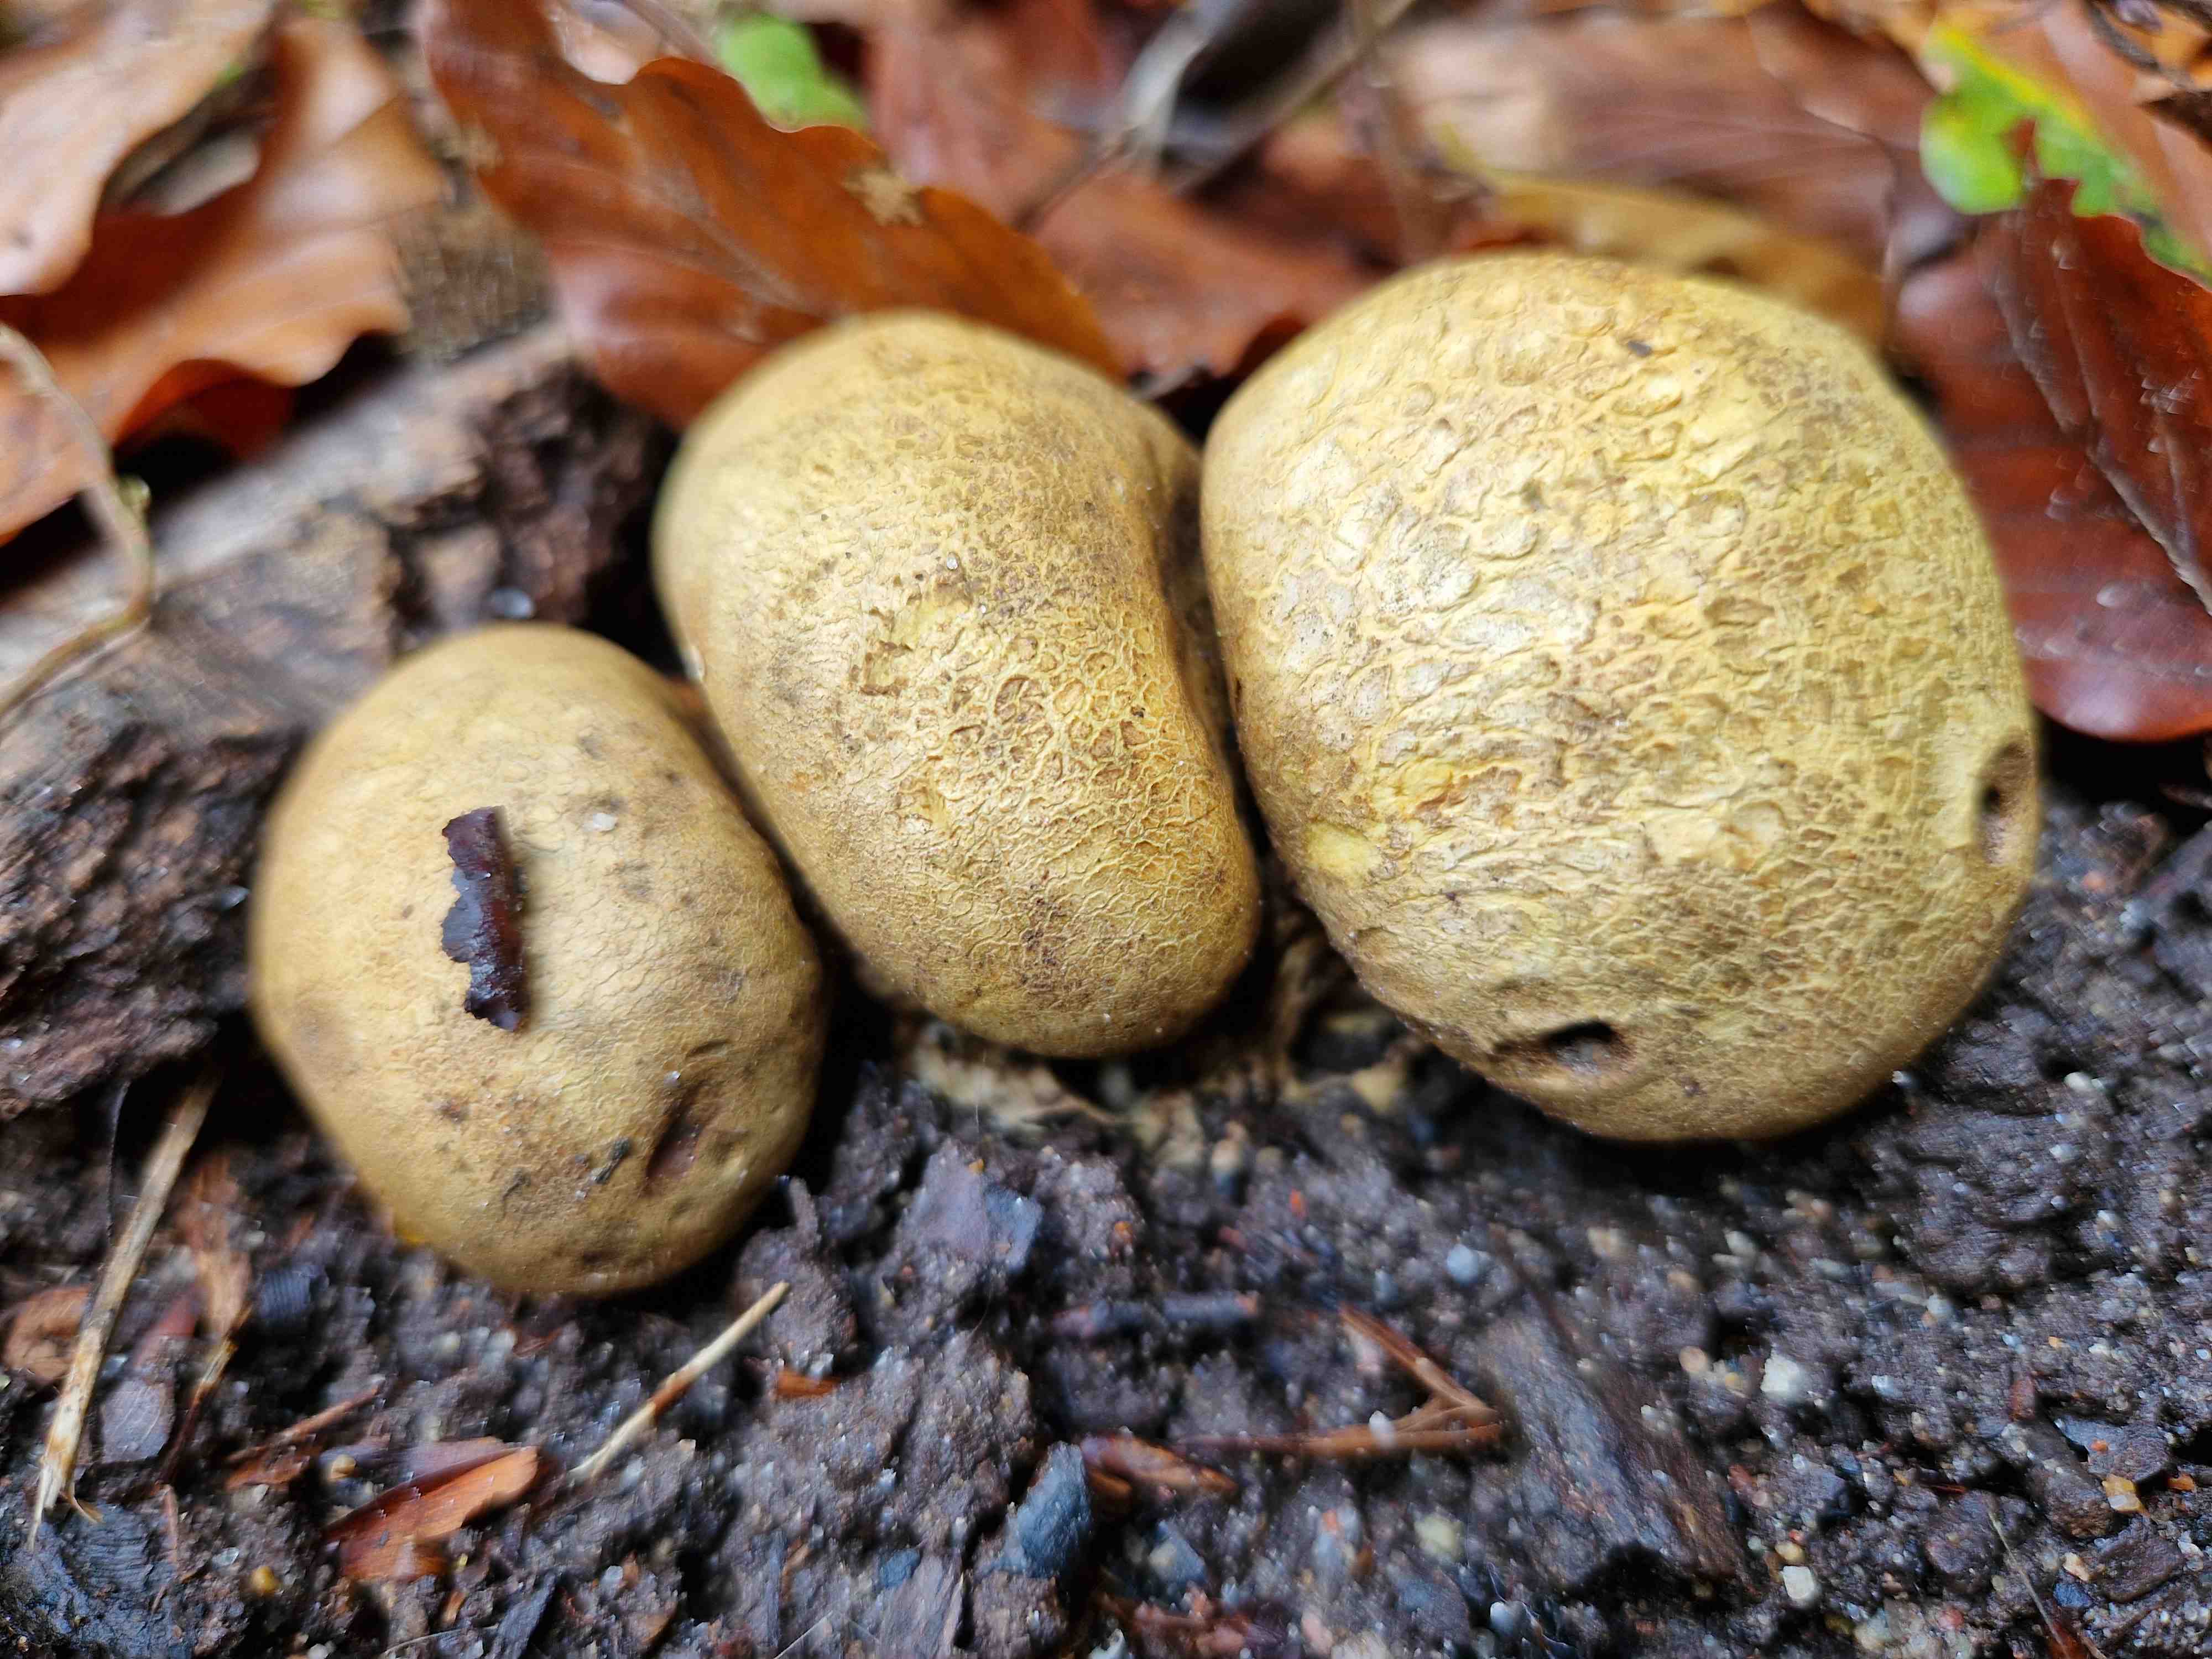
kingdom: Fungi
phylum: Basidiomycota
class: Agaricomycetes
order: Boletales
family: Sclerodermataceae
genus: Scleroderma
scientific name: Scleroderma citrinum
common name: almindelig bruskbold
